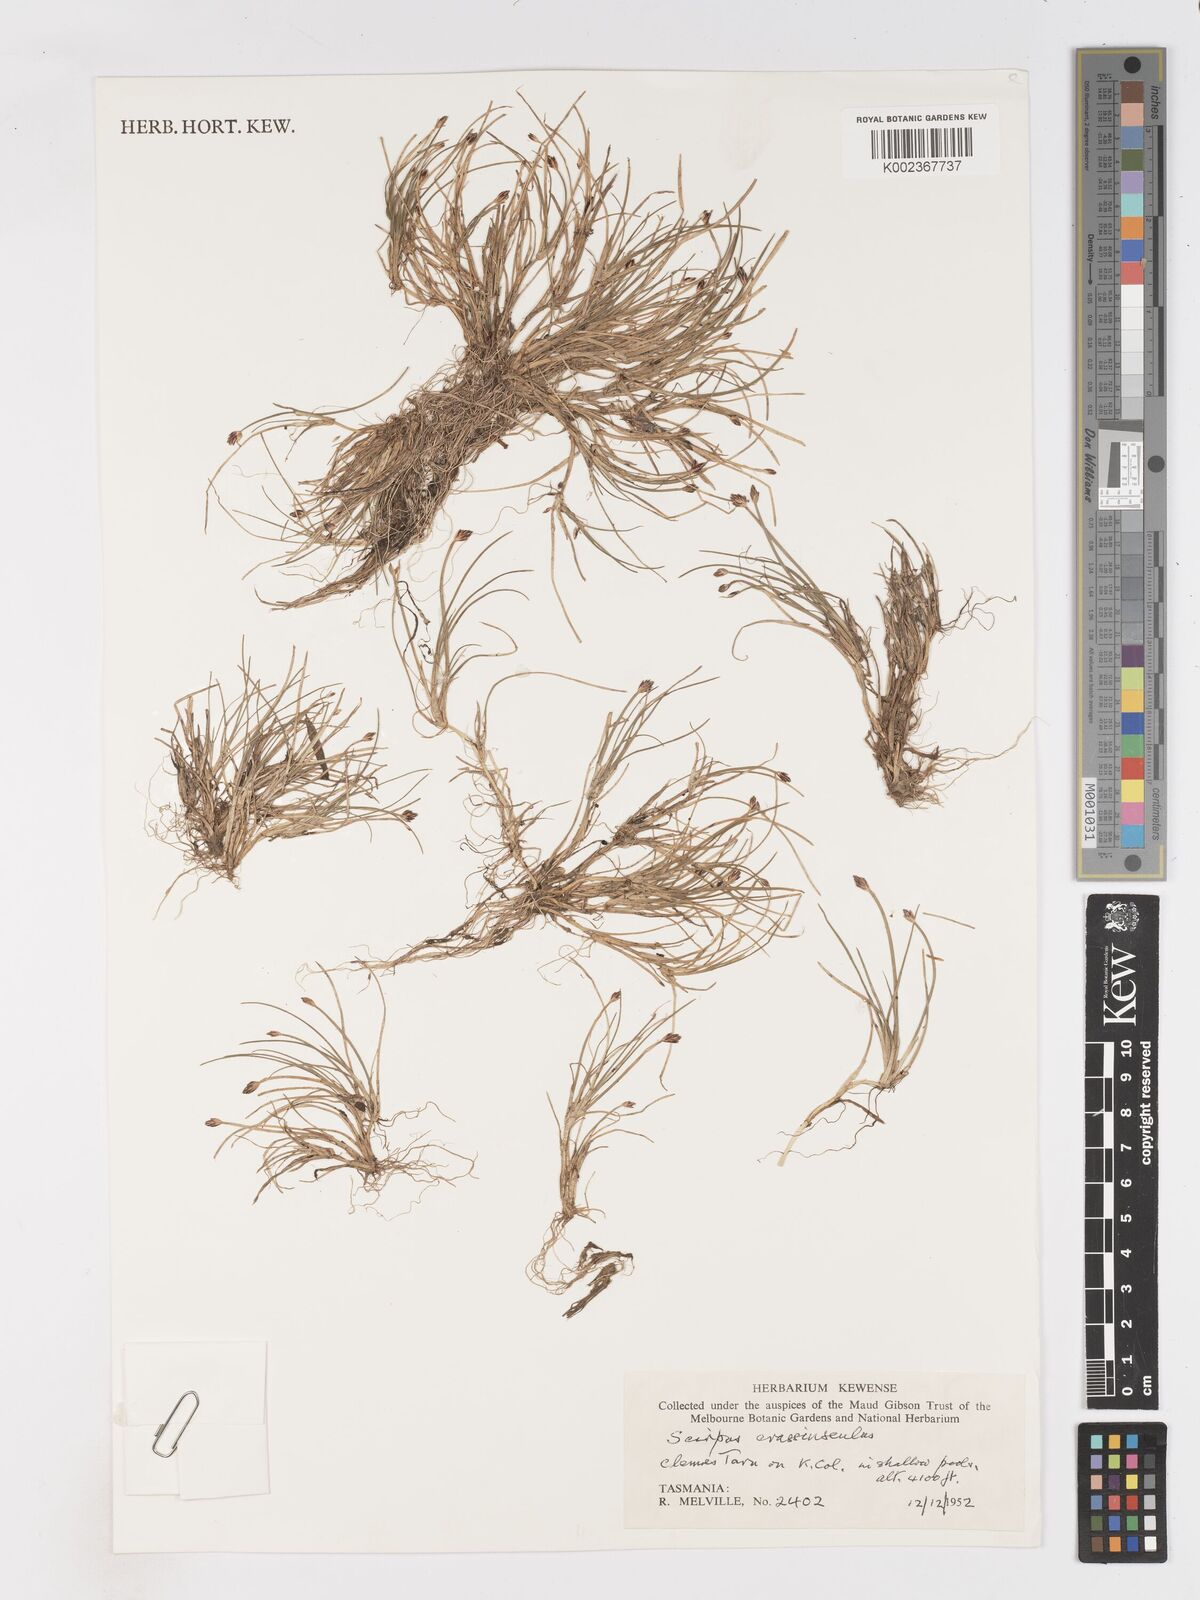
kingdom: Plantae
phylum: Tracheophyta
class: Liliopsida
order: Poales
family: Cyperaceae
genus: Isolepis
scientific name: Isolepis crassiuscula
